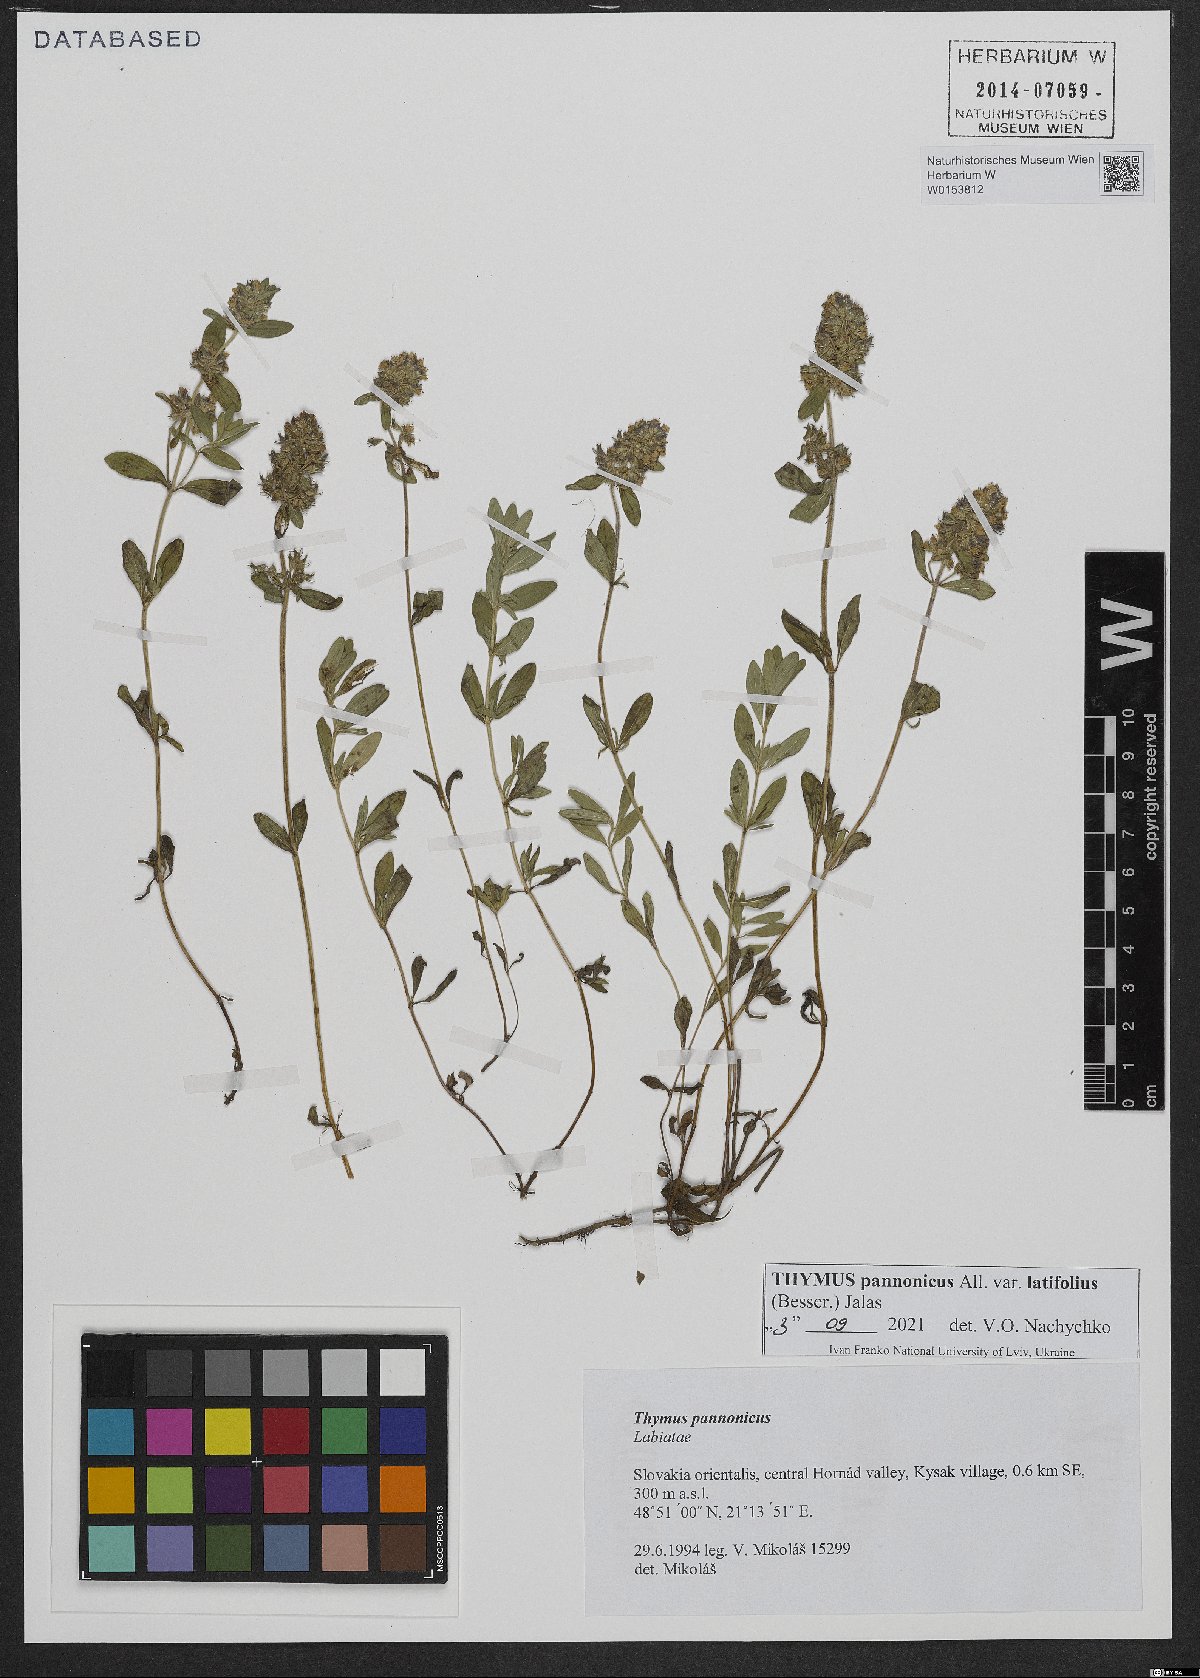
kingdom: Plantae
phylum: Tracheophyta
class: Magnoliopsida
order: Lamiales
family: Lamiaceae
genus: Thymus
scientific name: Thymus pannonicus
